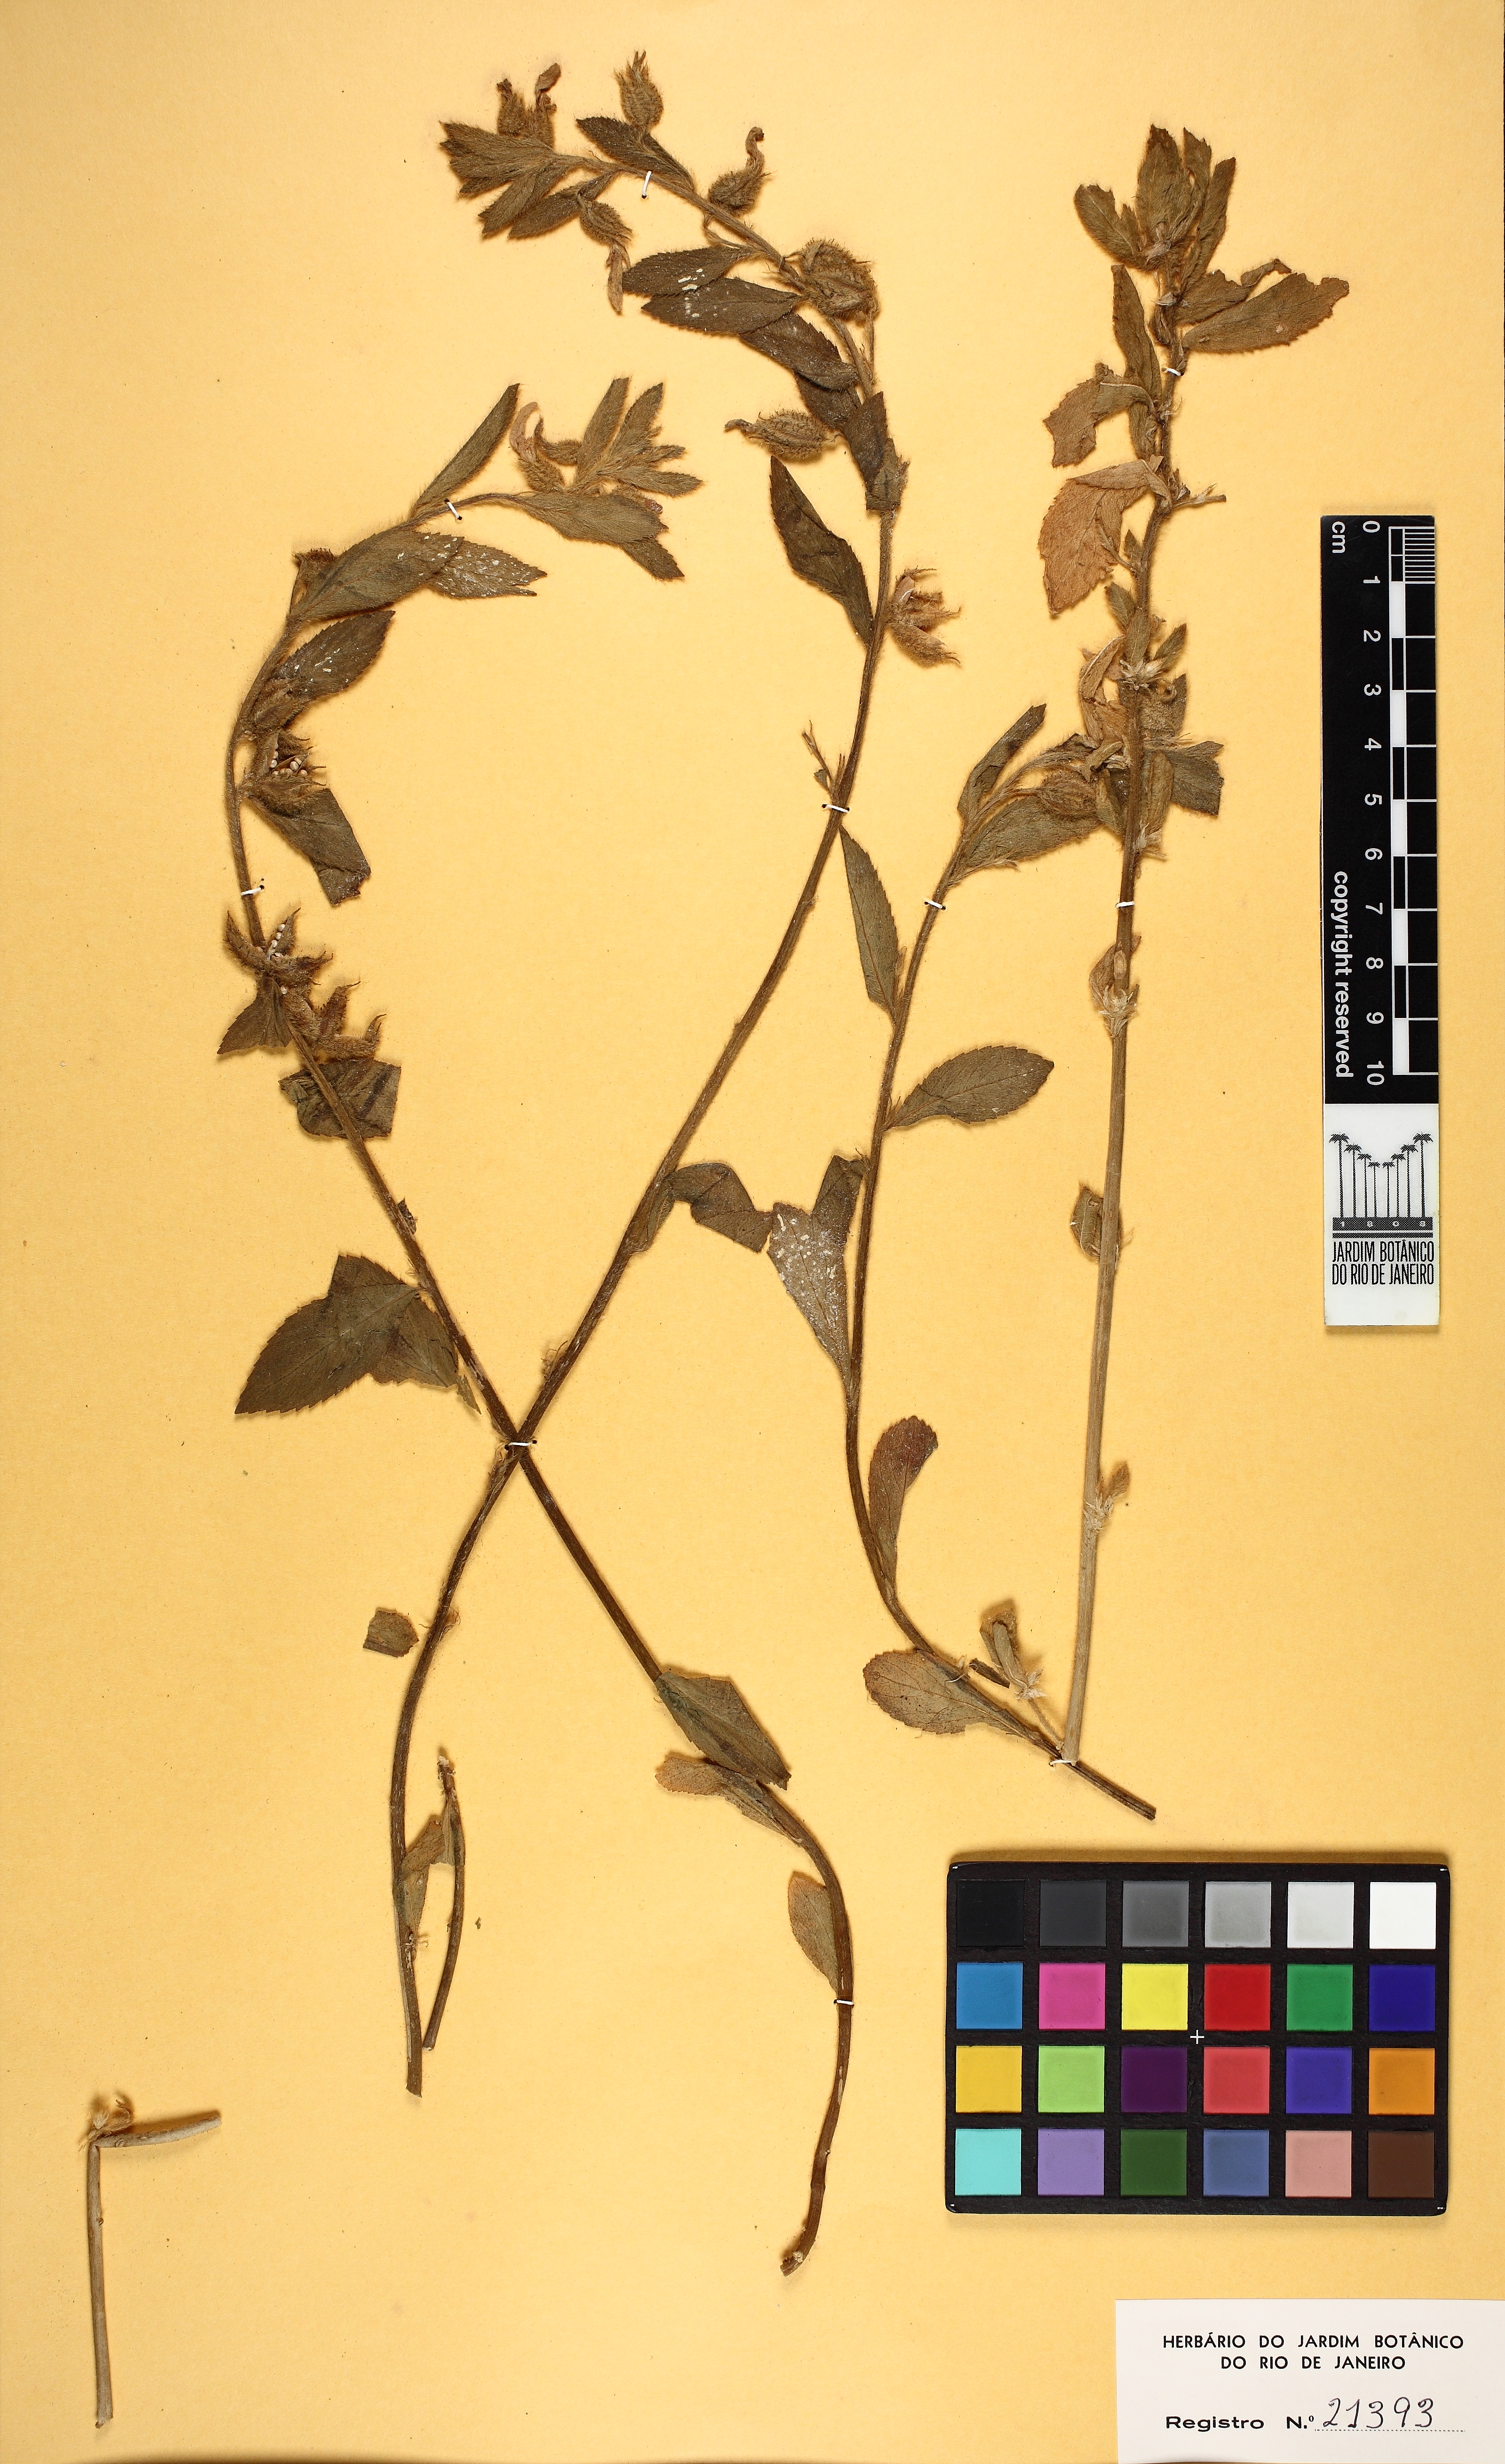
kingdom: Plantae
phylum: Tracheophyta
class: Magnoliopsida
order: Malpighiales
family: Violaceae
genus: Pombalia
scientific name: Pombalia calceolaria
